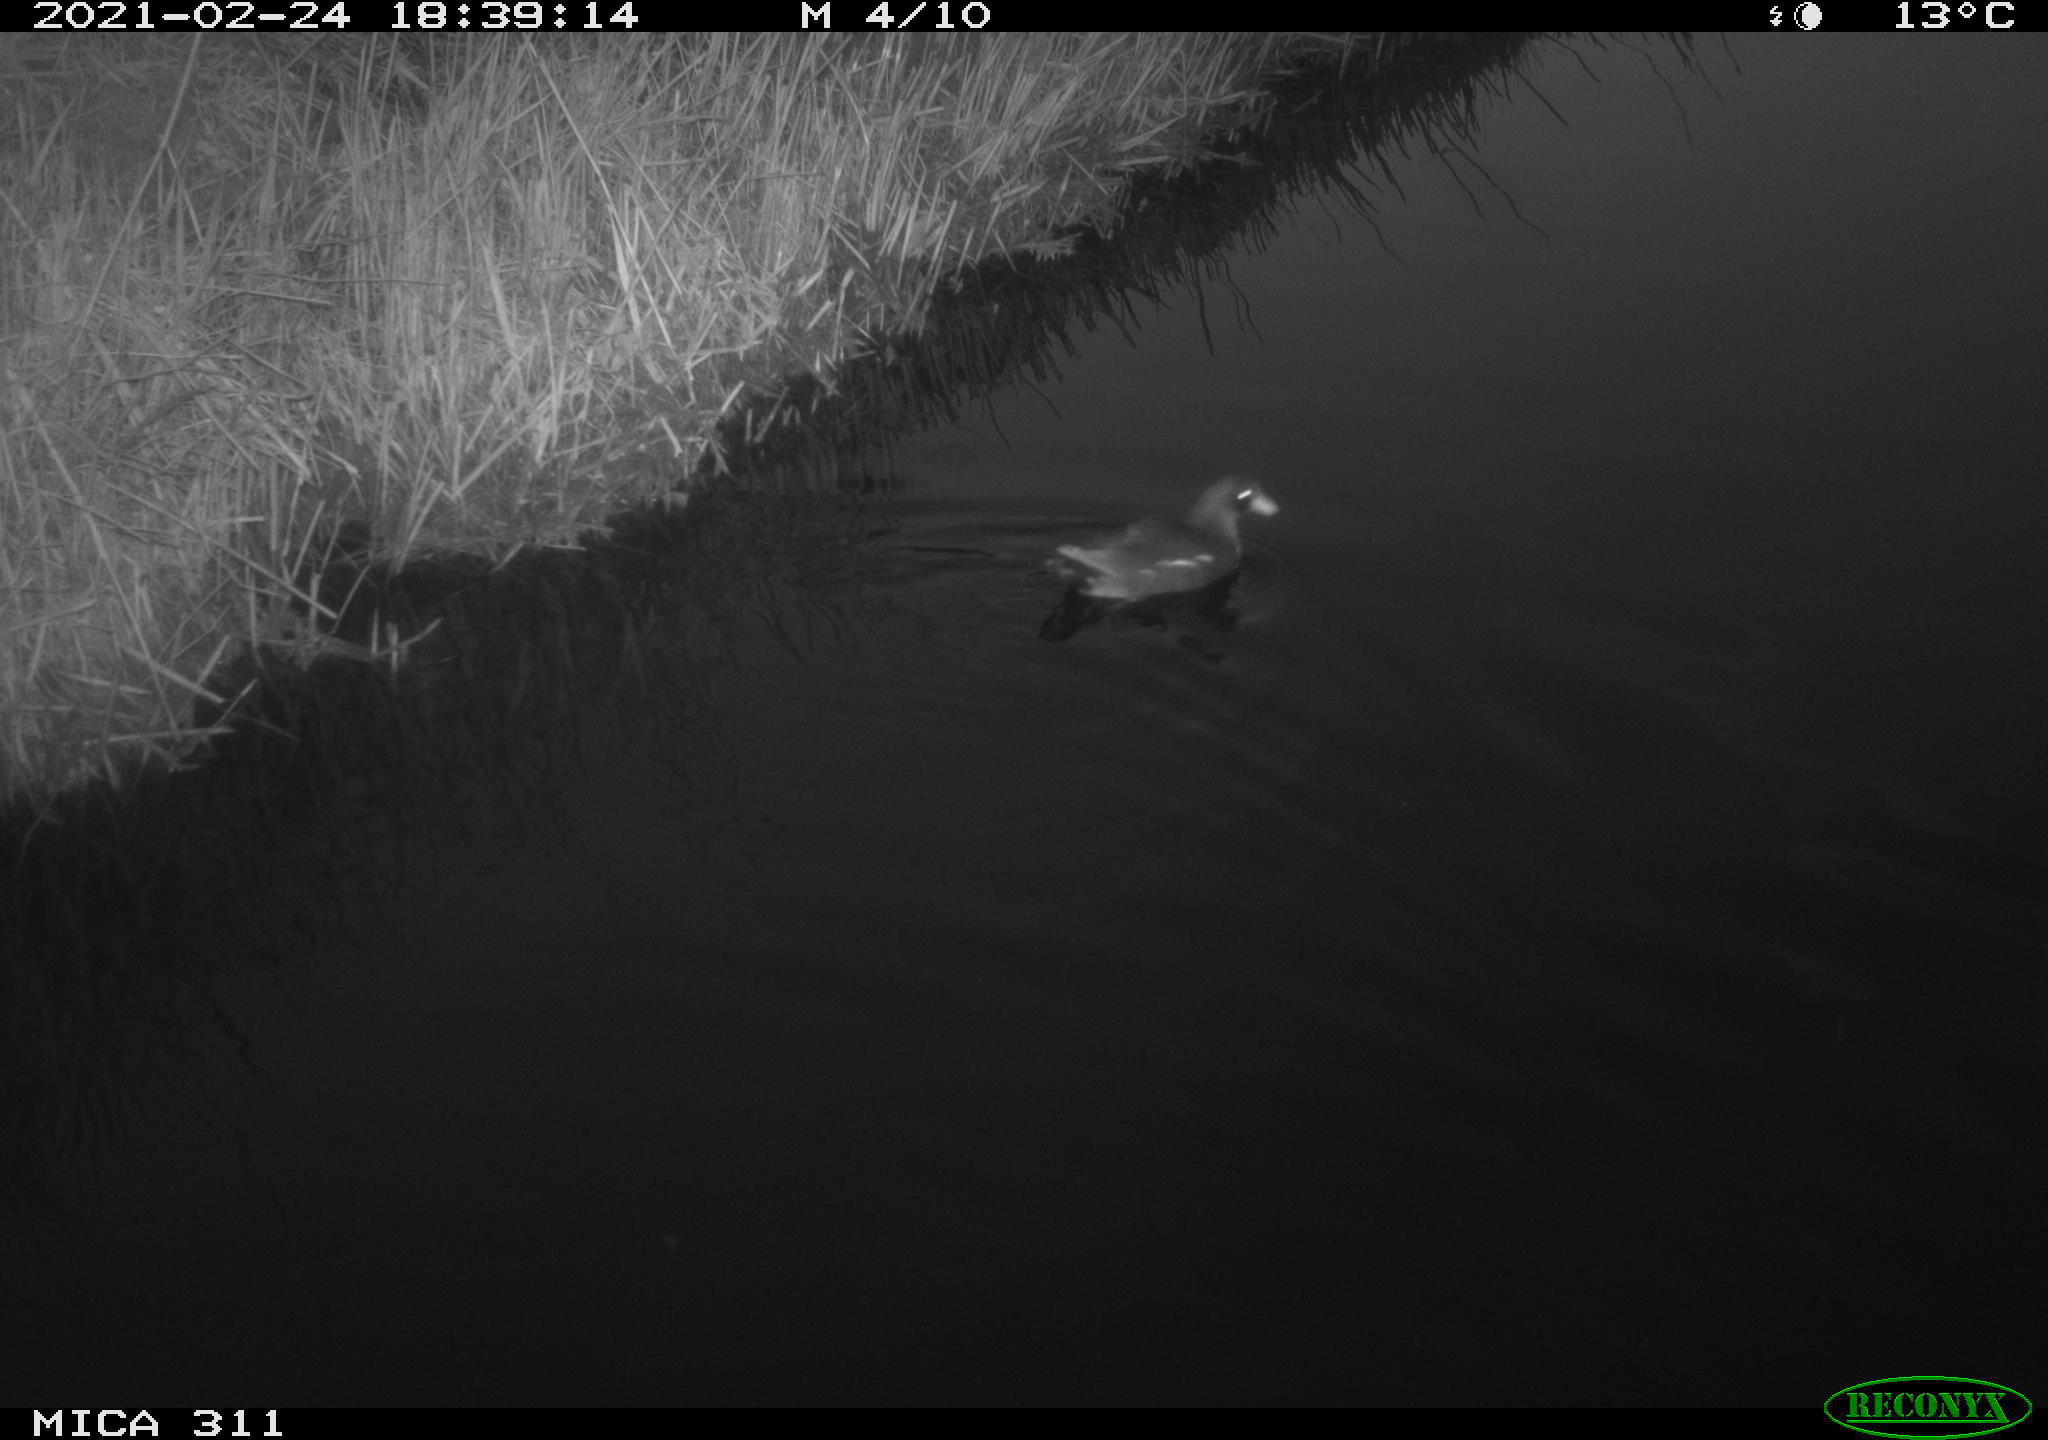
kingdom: Animalia
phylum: Chordata
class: Aves
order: Gruiformes
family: Rallidae
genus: Gallinula
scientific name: Gallinula chloropus
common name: Common moorhen
